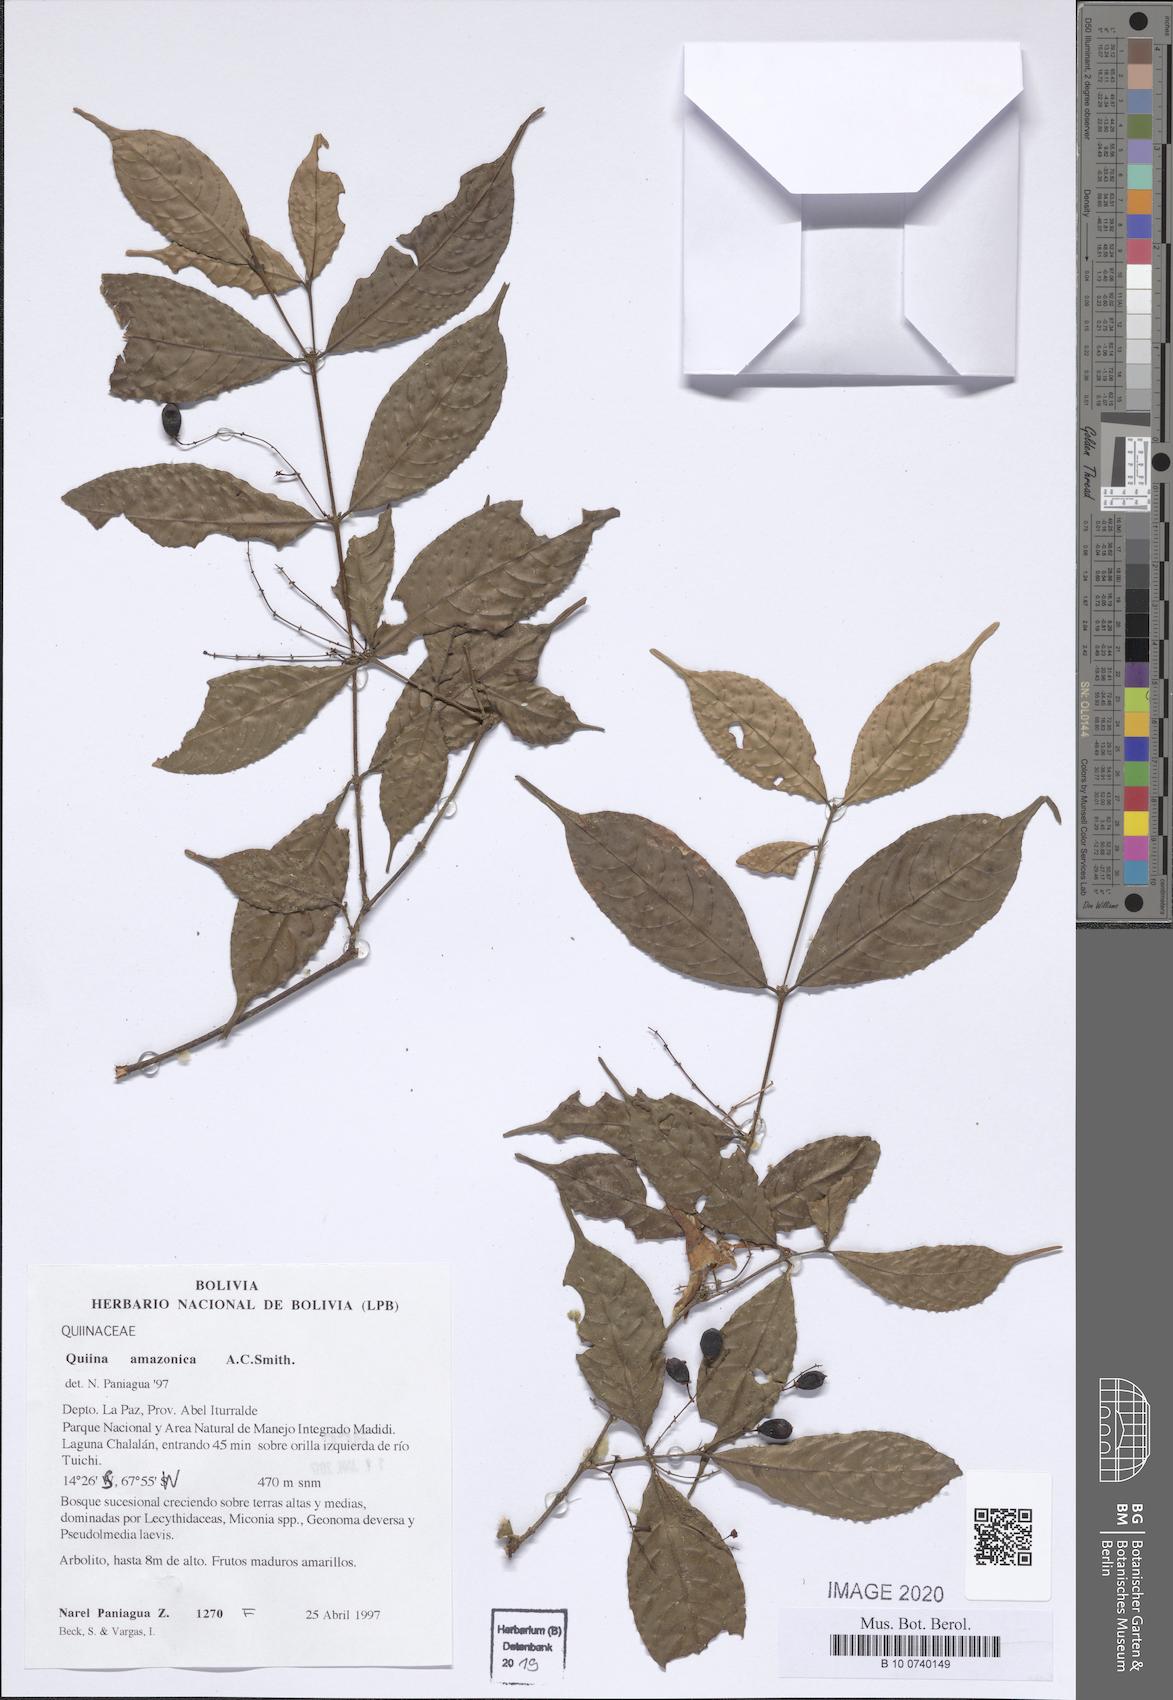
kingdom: Plantae
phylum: Tracheophyta
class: Magnoliopsida
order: Malpighiales
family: Quiinaceae
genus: Quiina
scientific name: Quiina amazonica
